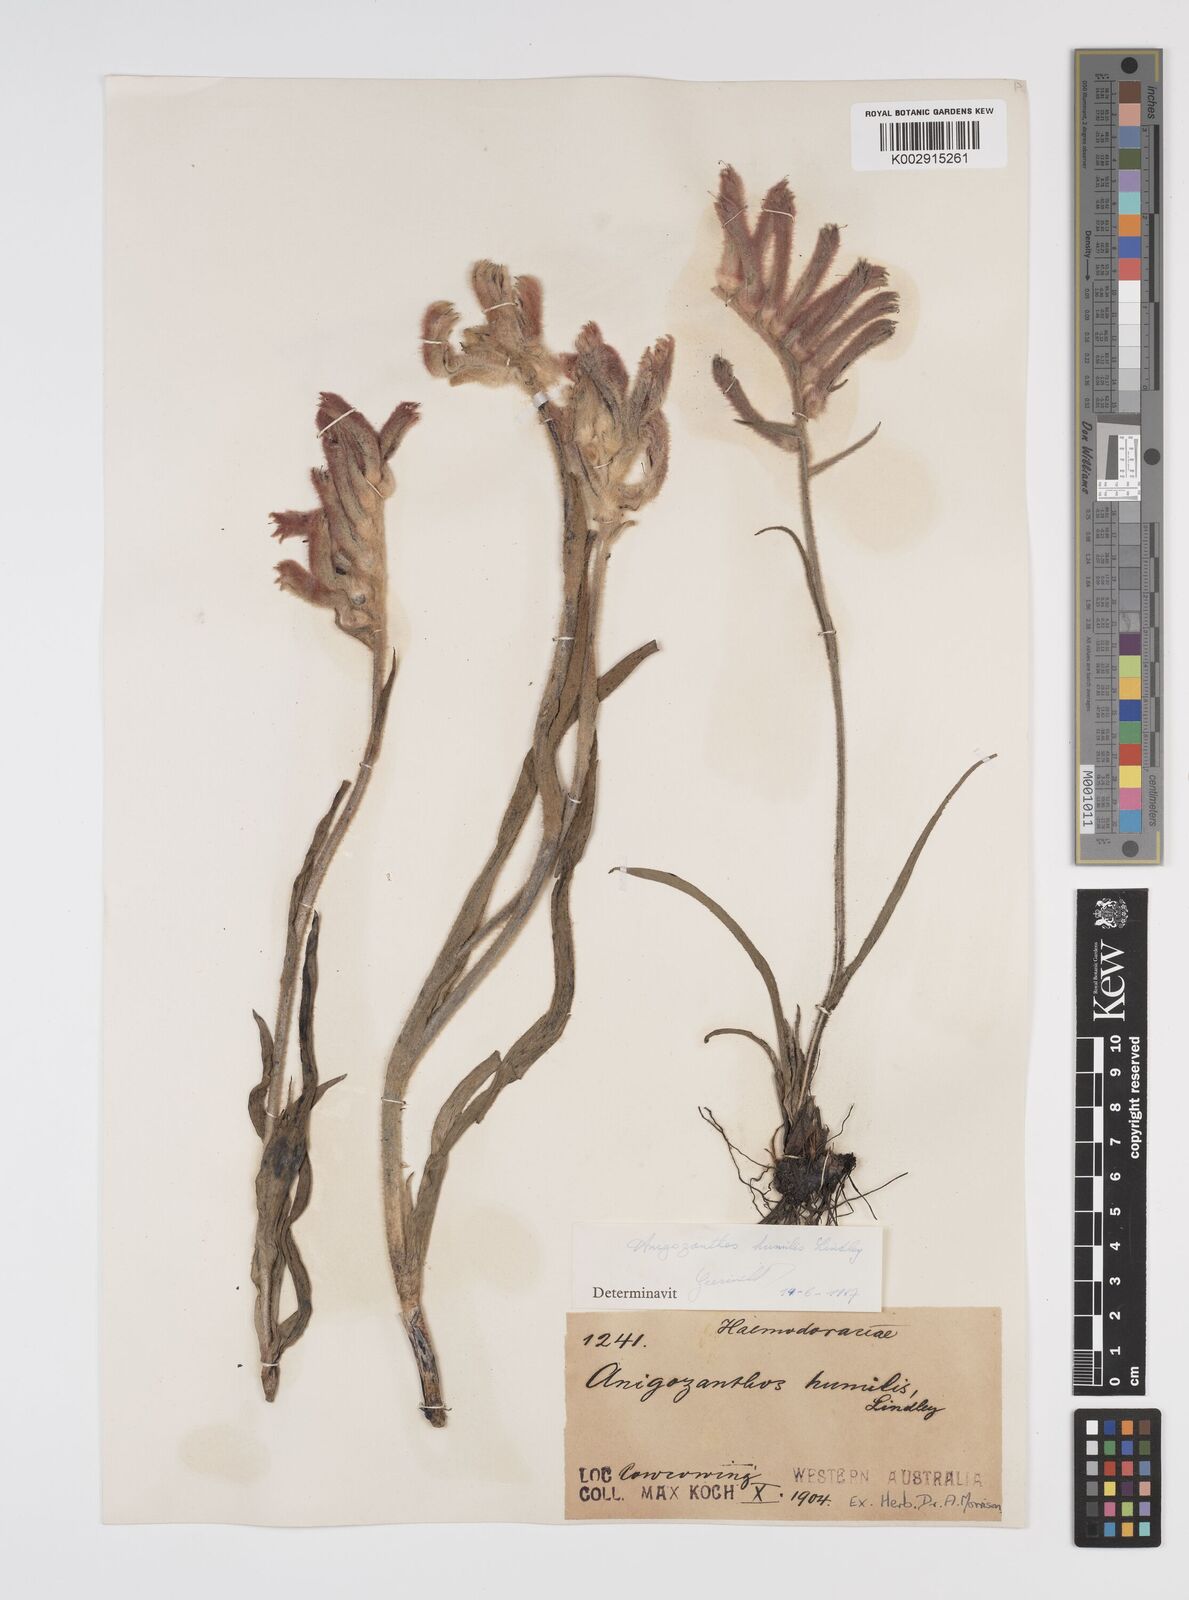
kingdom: Plantae
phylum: Tracheophyta
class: Liliopsida
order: Commelinales
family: Haemodoraceae
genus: Anigozanthos
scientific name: Anigozanthos humilis
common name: Cat's-paw
